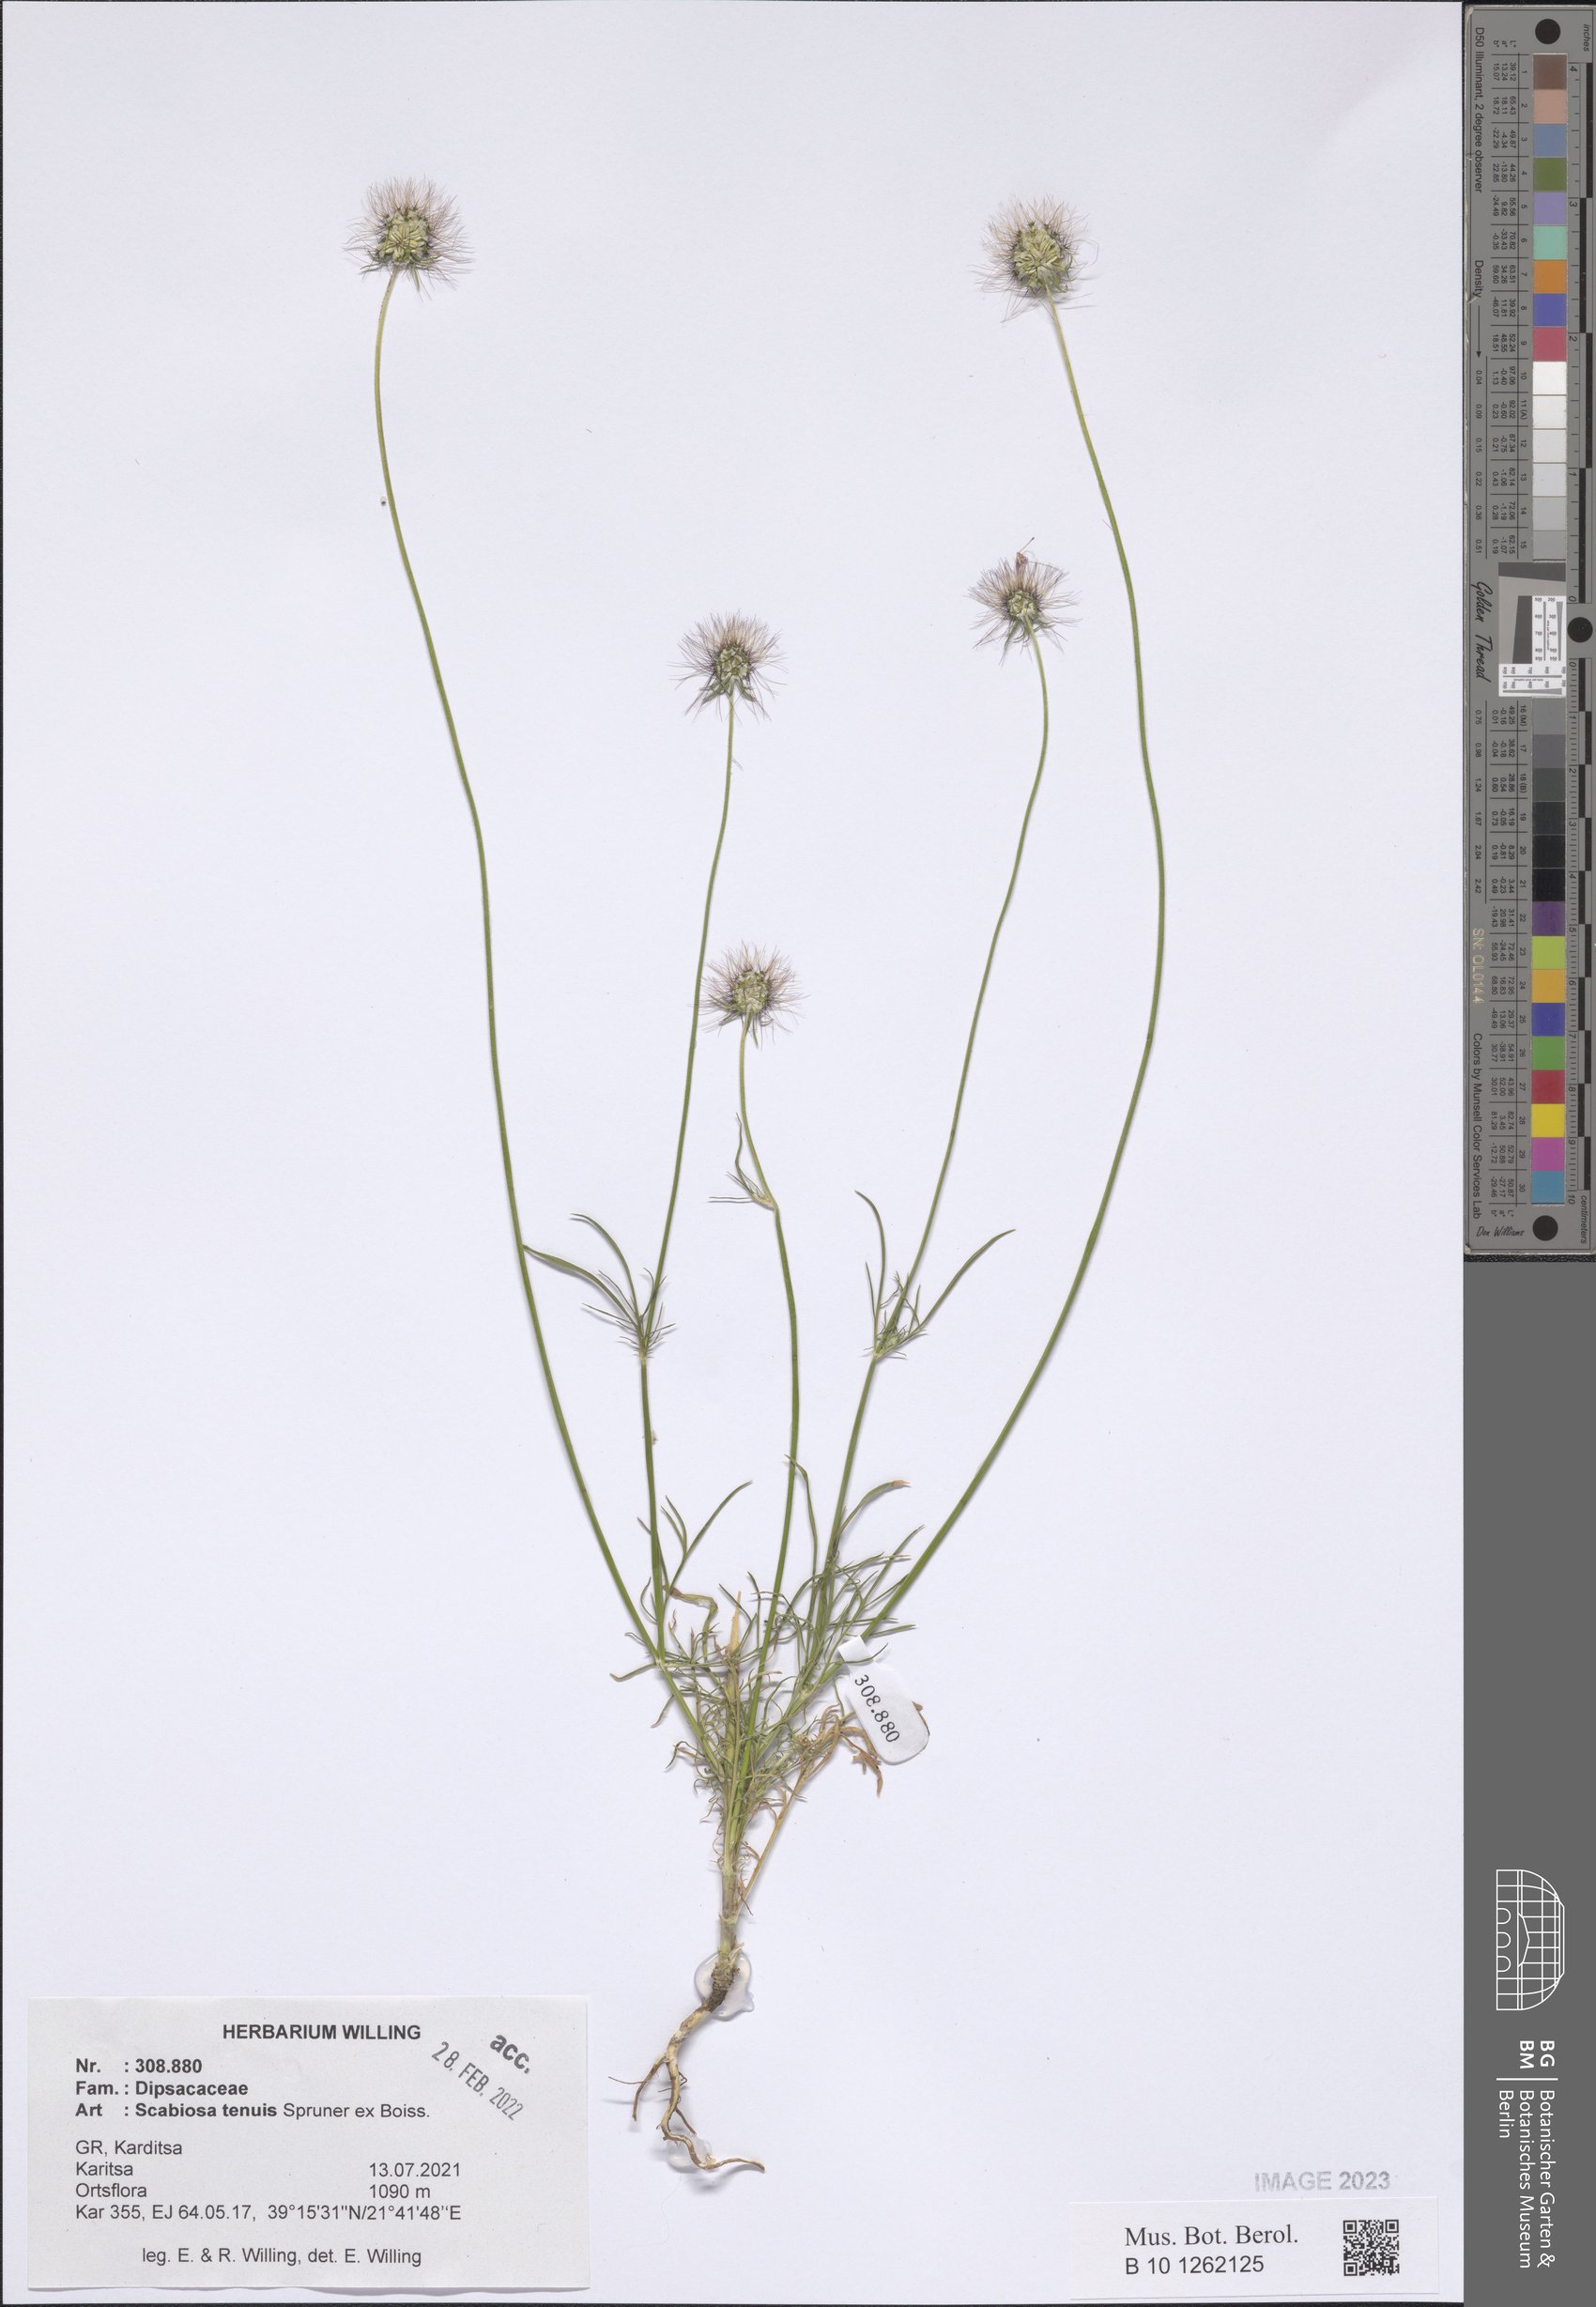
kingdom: Plantae
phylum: Tracheophyta
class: Magnoliopsida
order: Dipsacales
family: Caprifoliaceae
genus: Scabiosa
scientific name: Scabiosa tenuis
